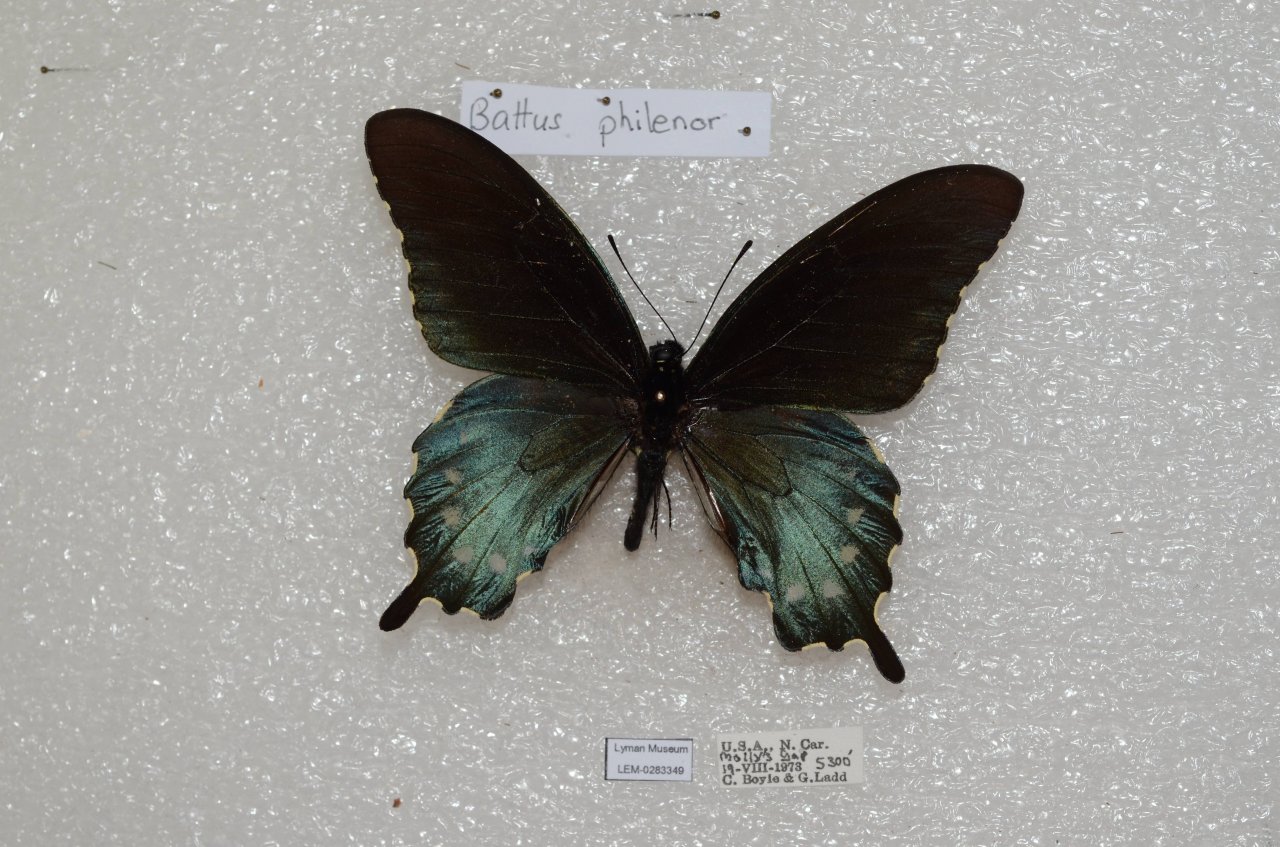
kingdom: Animalia
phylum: Arthropoda
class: Insecta
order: Lepidoptera
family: Papilionidae
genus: Battus
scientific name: Battus philenor
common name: Pipevine Swallowtail
